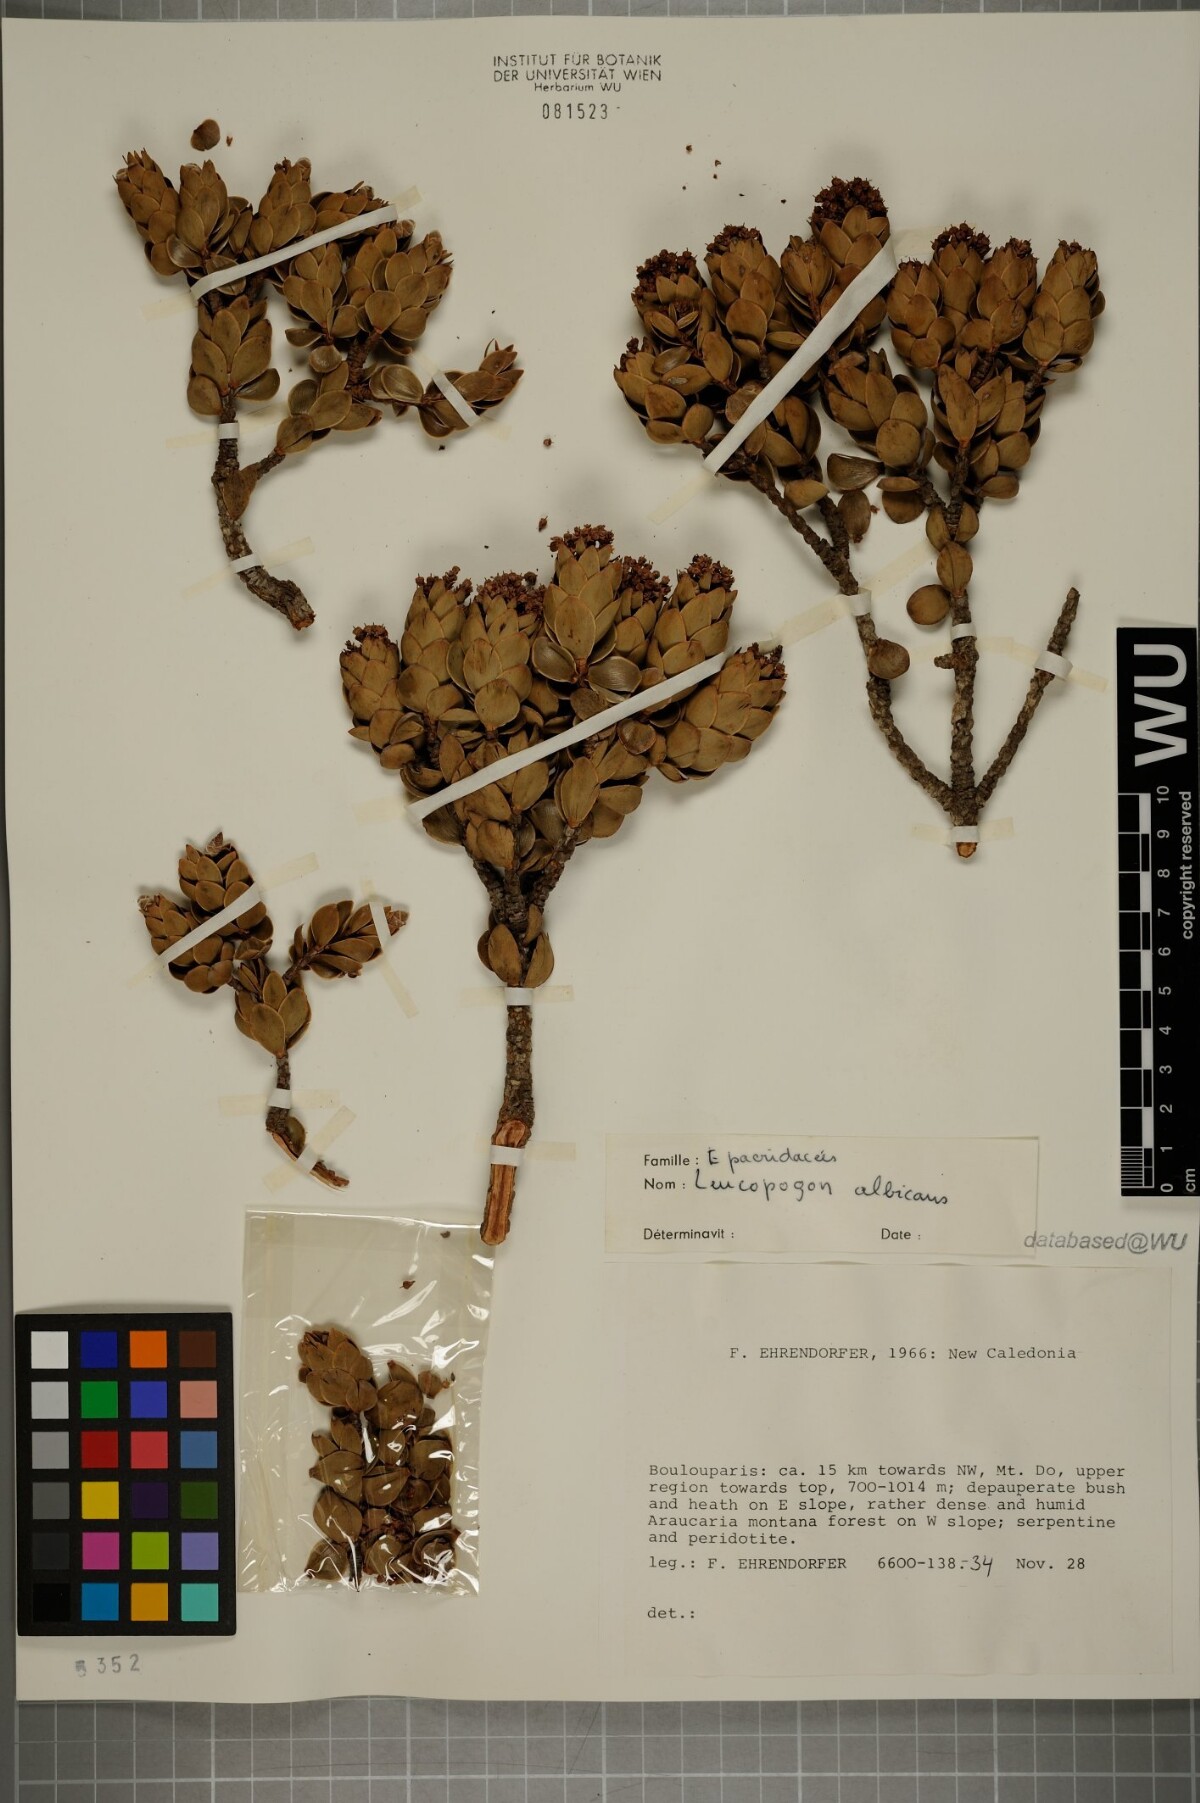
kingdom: Plantae
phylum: Tracheophyta
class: Magnoliopsida
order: Ericales
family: Ericaceae
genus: Cyathopsis
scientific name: Cyathopsis albicans
